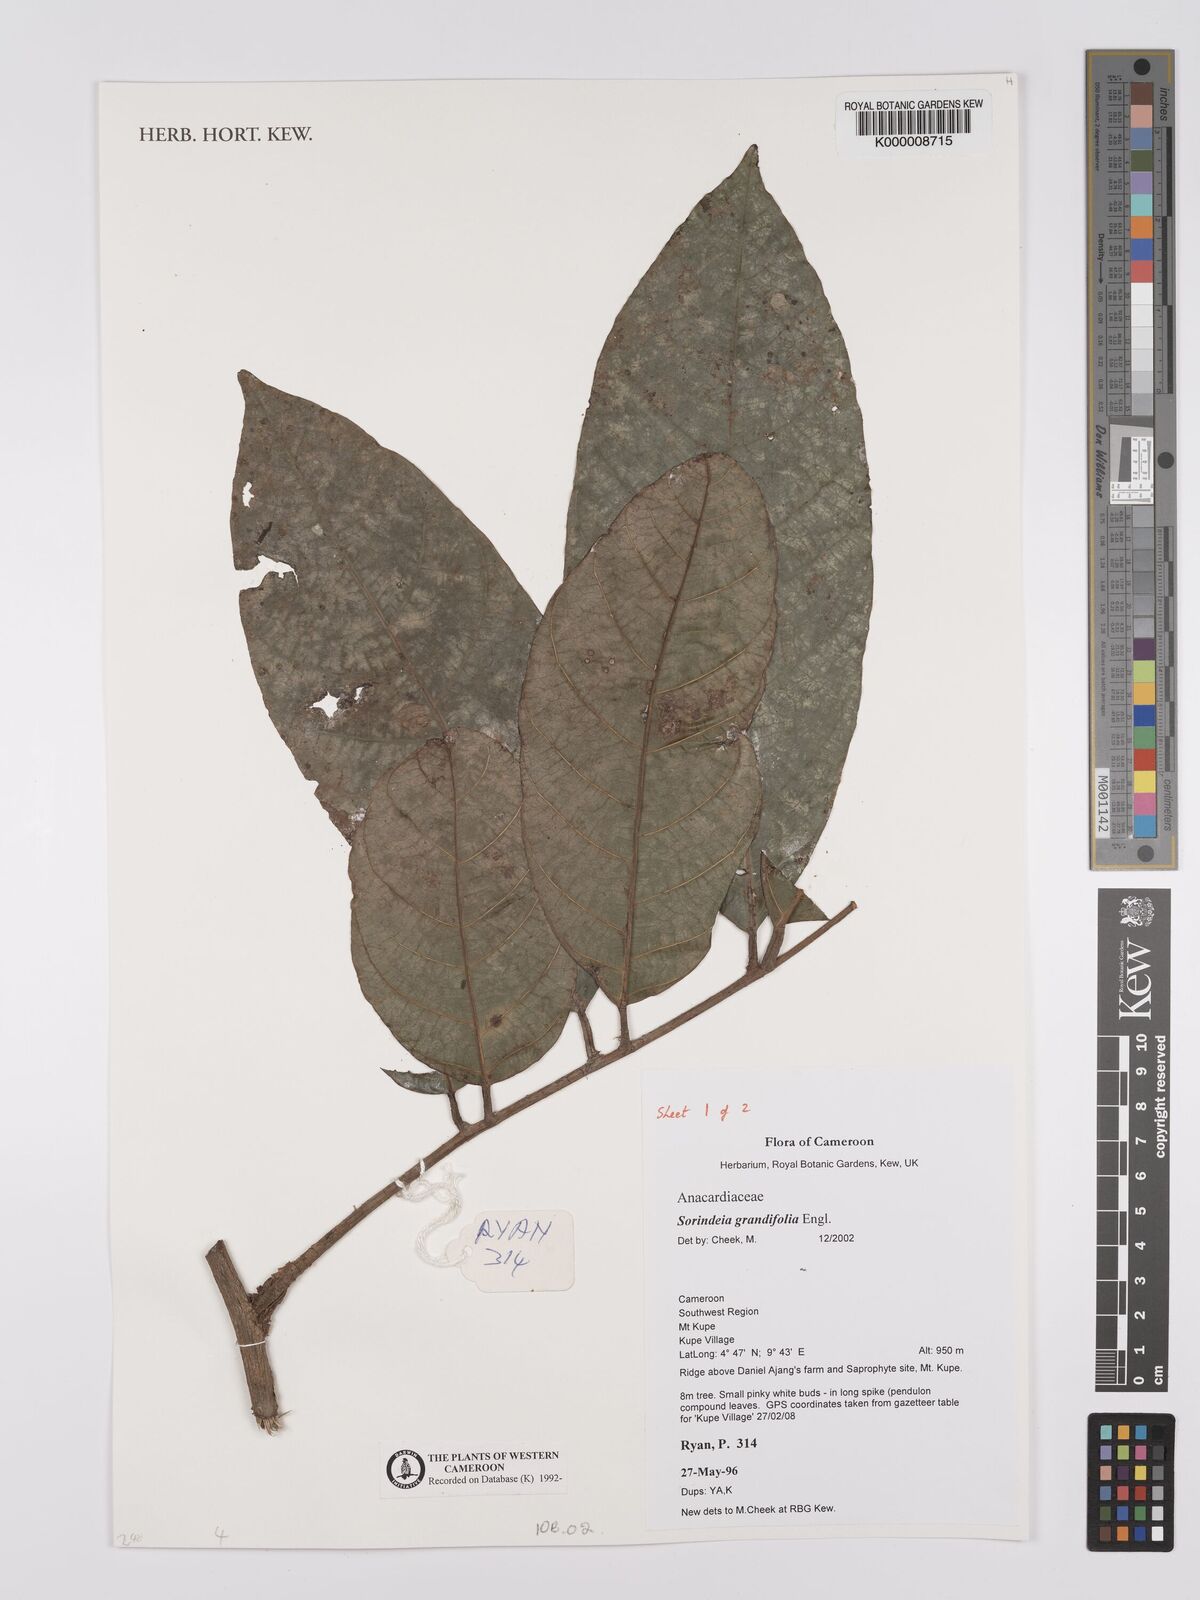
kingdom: Plantae
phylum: Tracheophyta
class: Magnoliopsida
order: Sapindales
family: Anacardiaceae
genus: Sorindeia
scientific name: Sorindeia grandifolia
